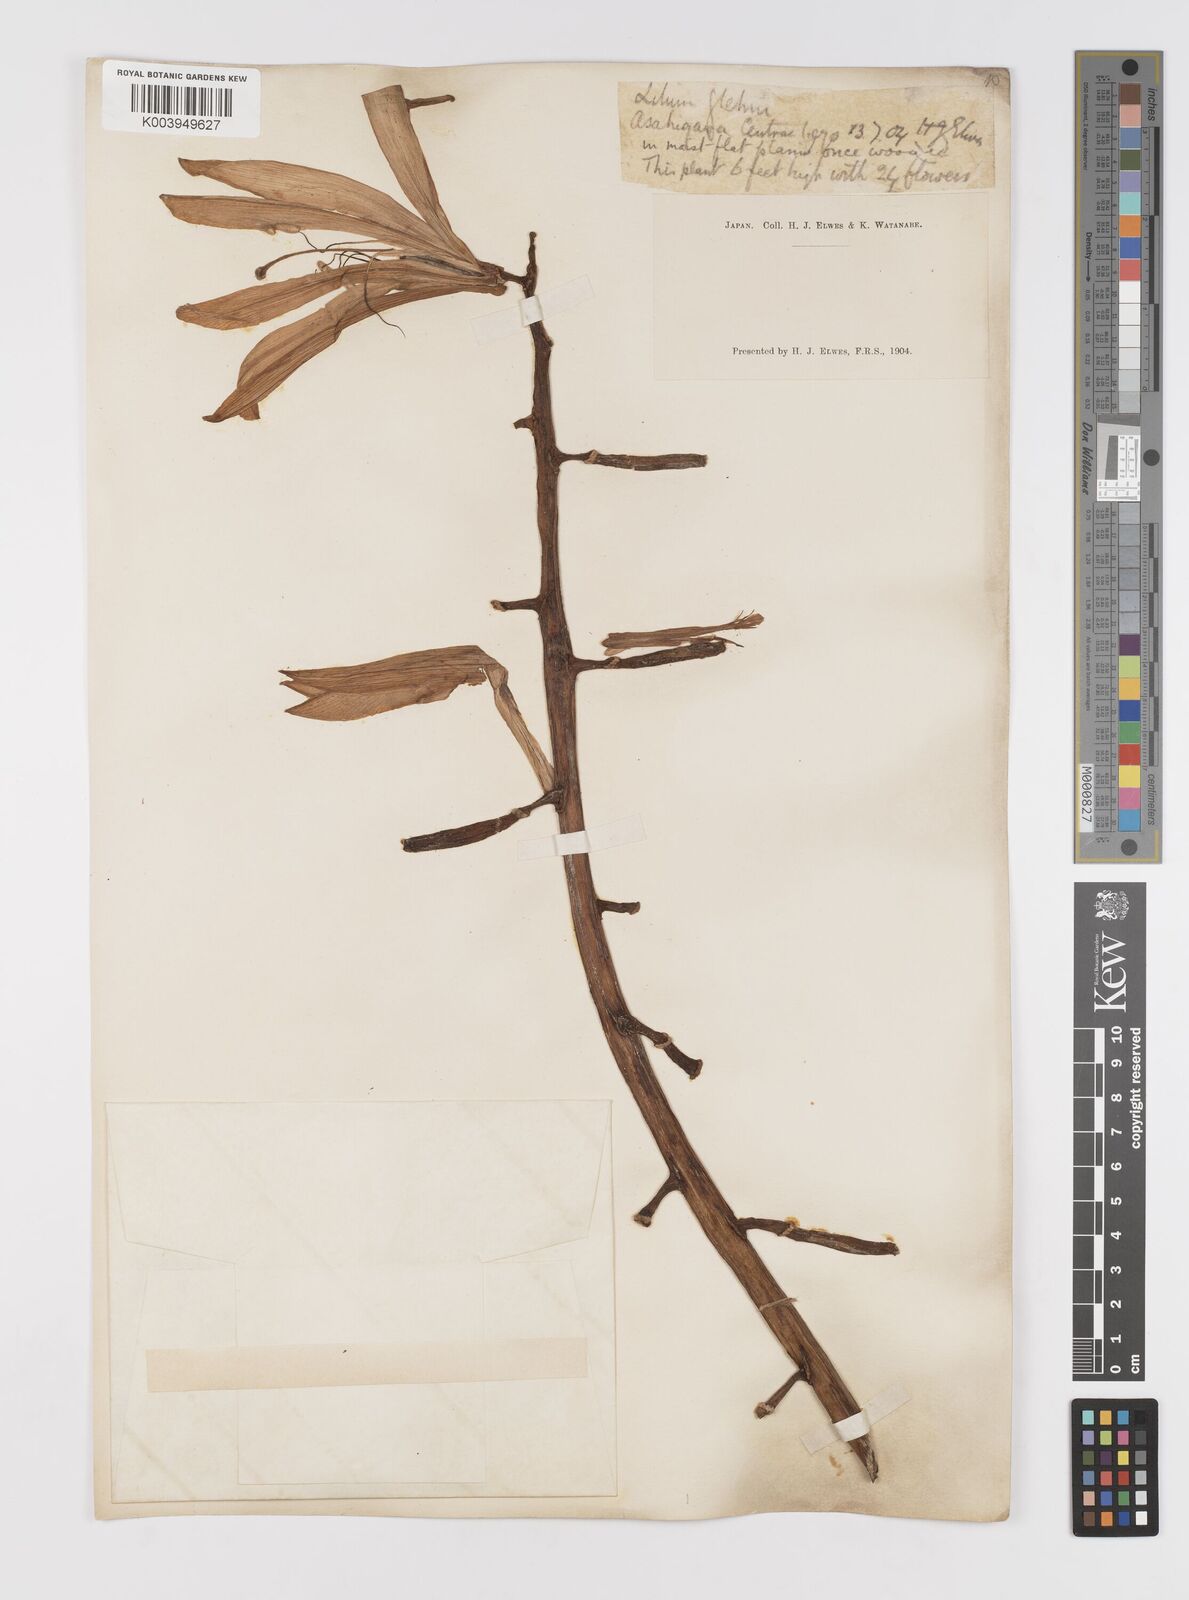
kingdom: Plantae
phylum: Tracheophyta
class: Liliopsida
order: Liliales
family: Liliaceae
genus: Lilium
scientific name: Lilium
